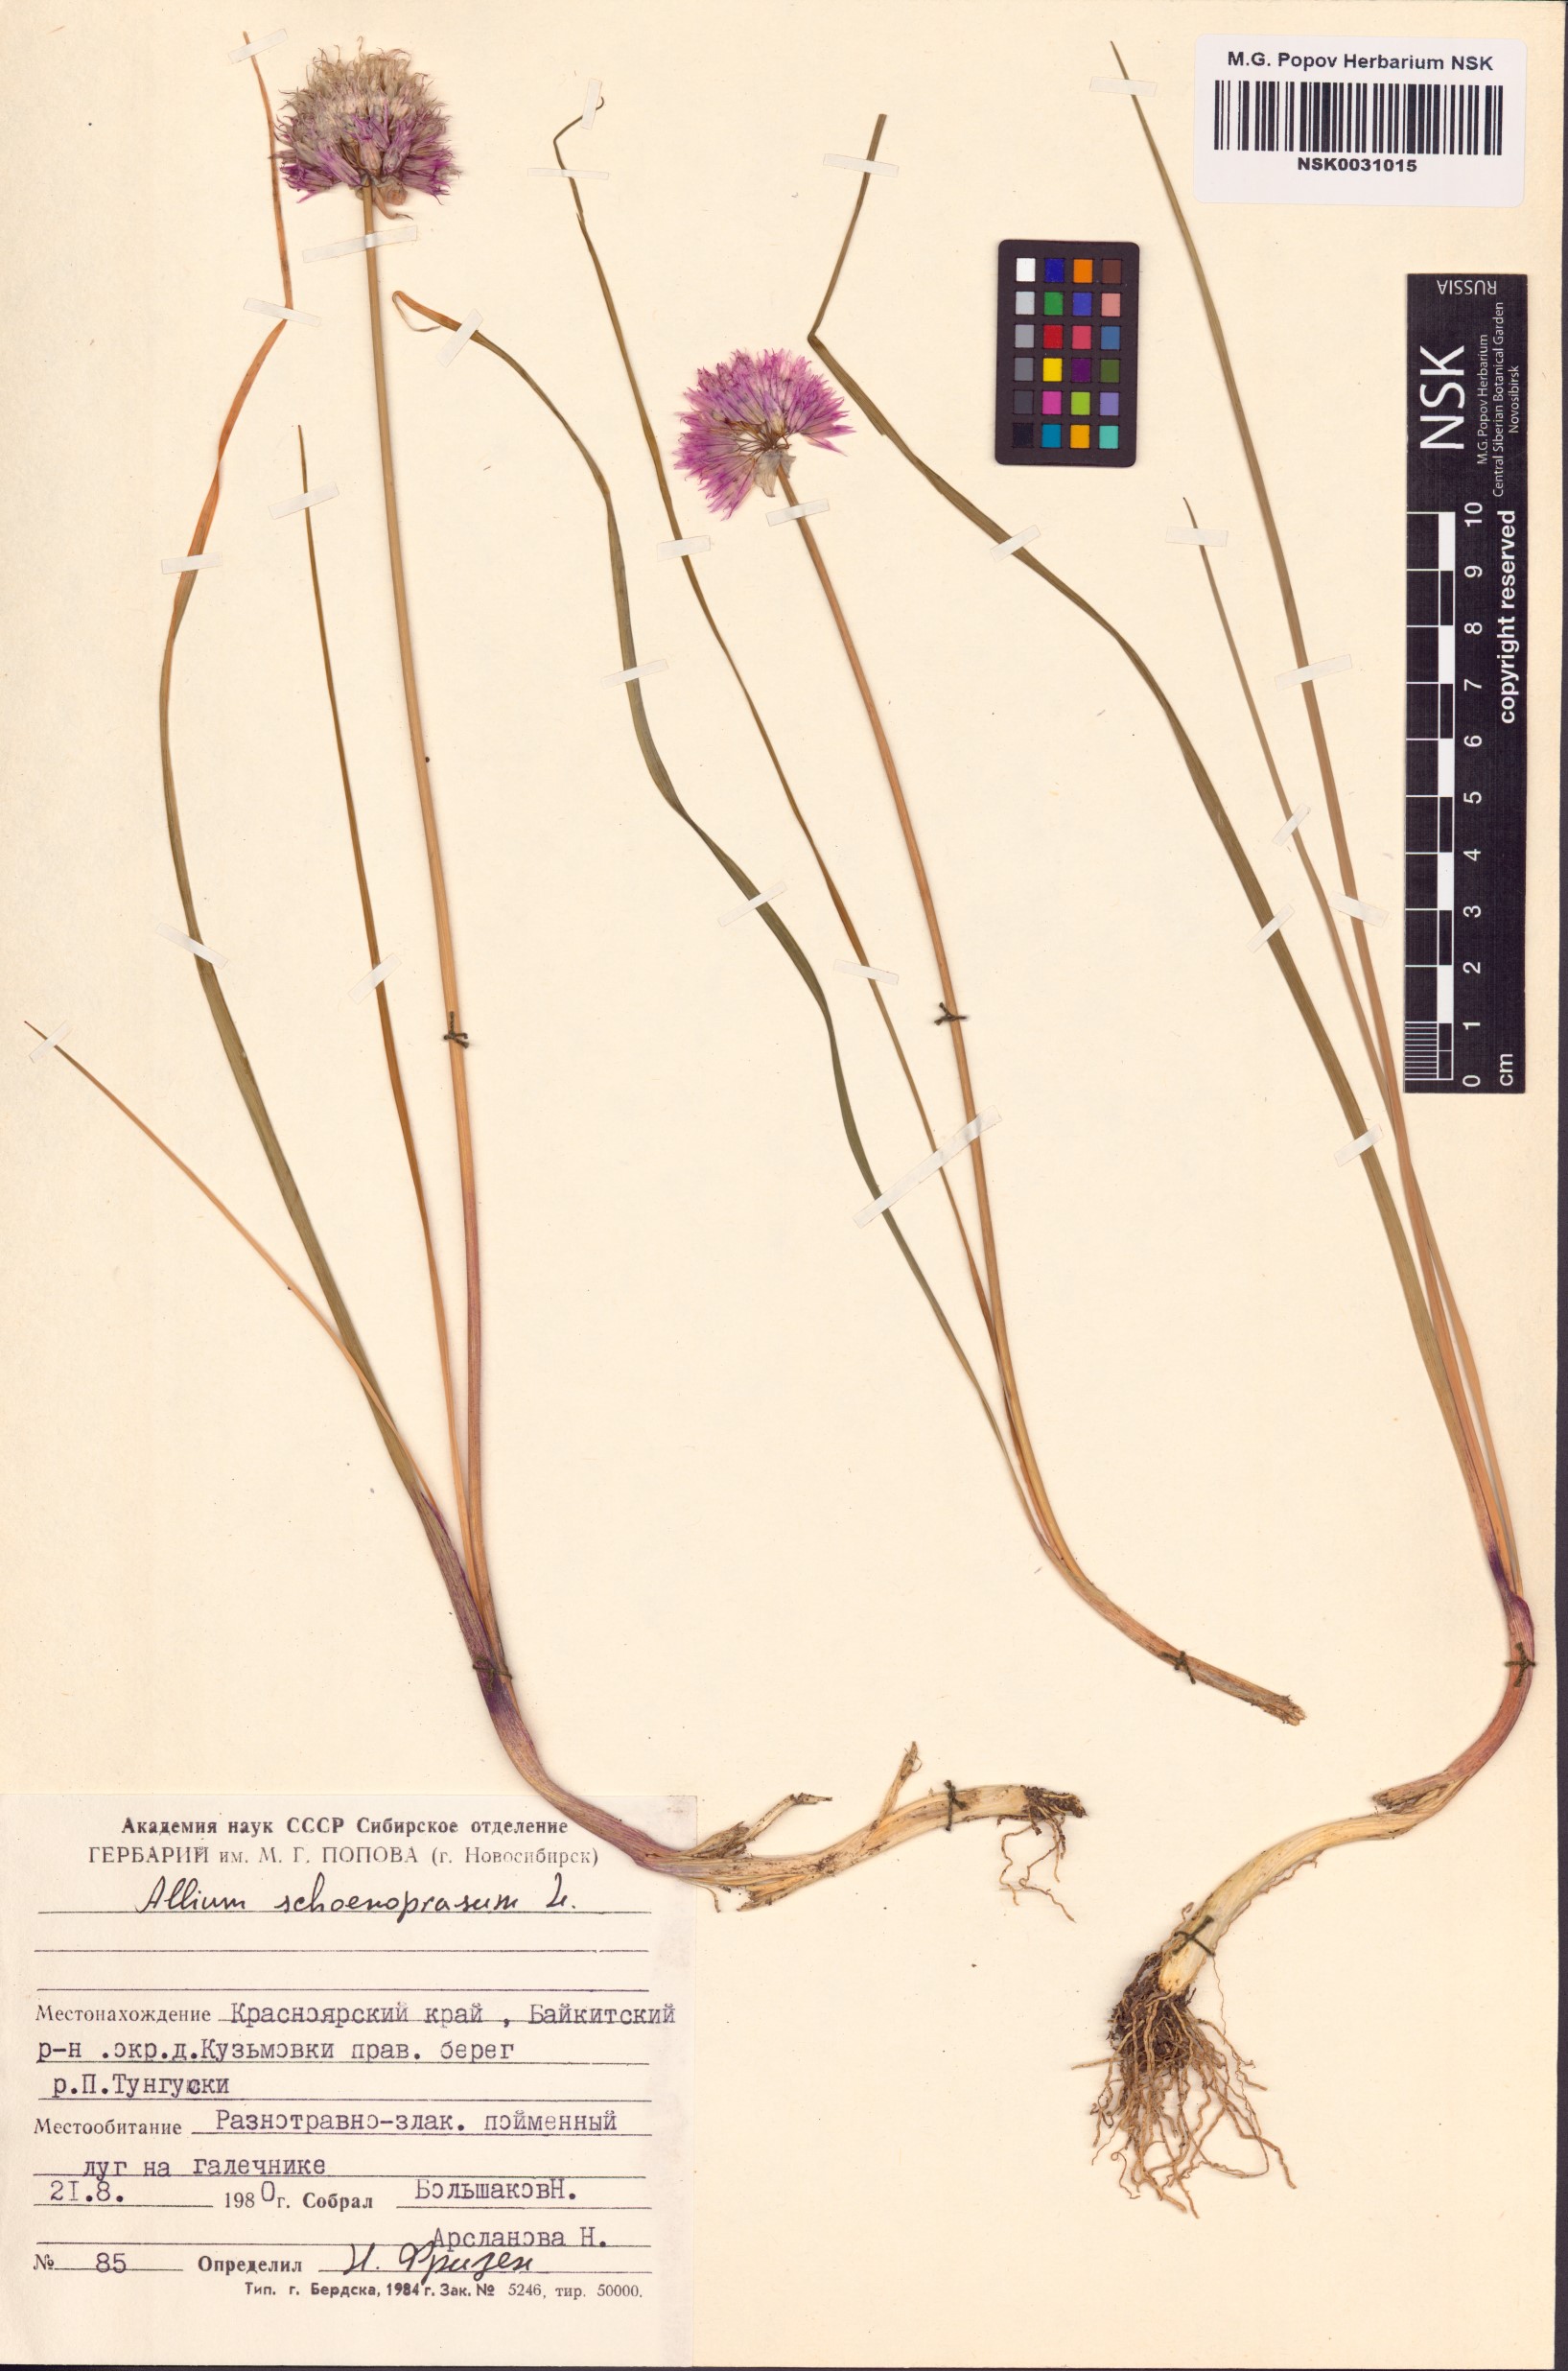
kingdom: Plantae
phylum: Tracheophyta
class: Liliopsida
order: Asparagales
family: Amaryllidaceae
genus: Allium
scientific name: Allium schoenoprasum
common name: Chives
